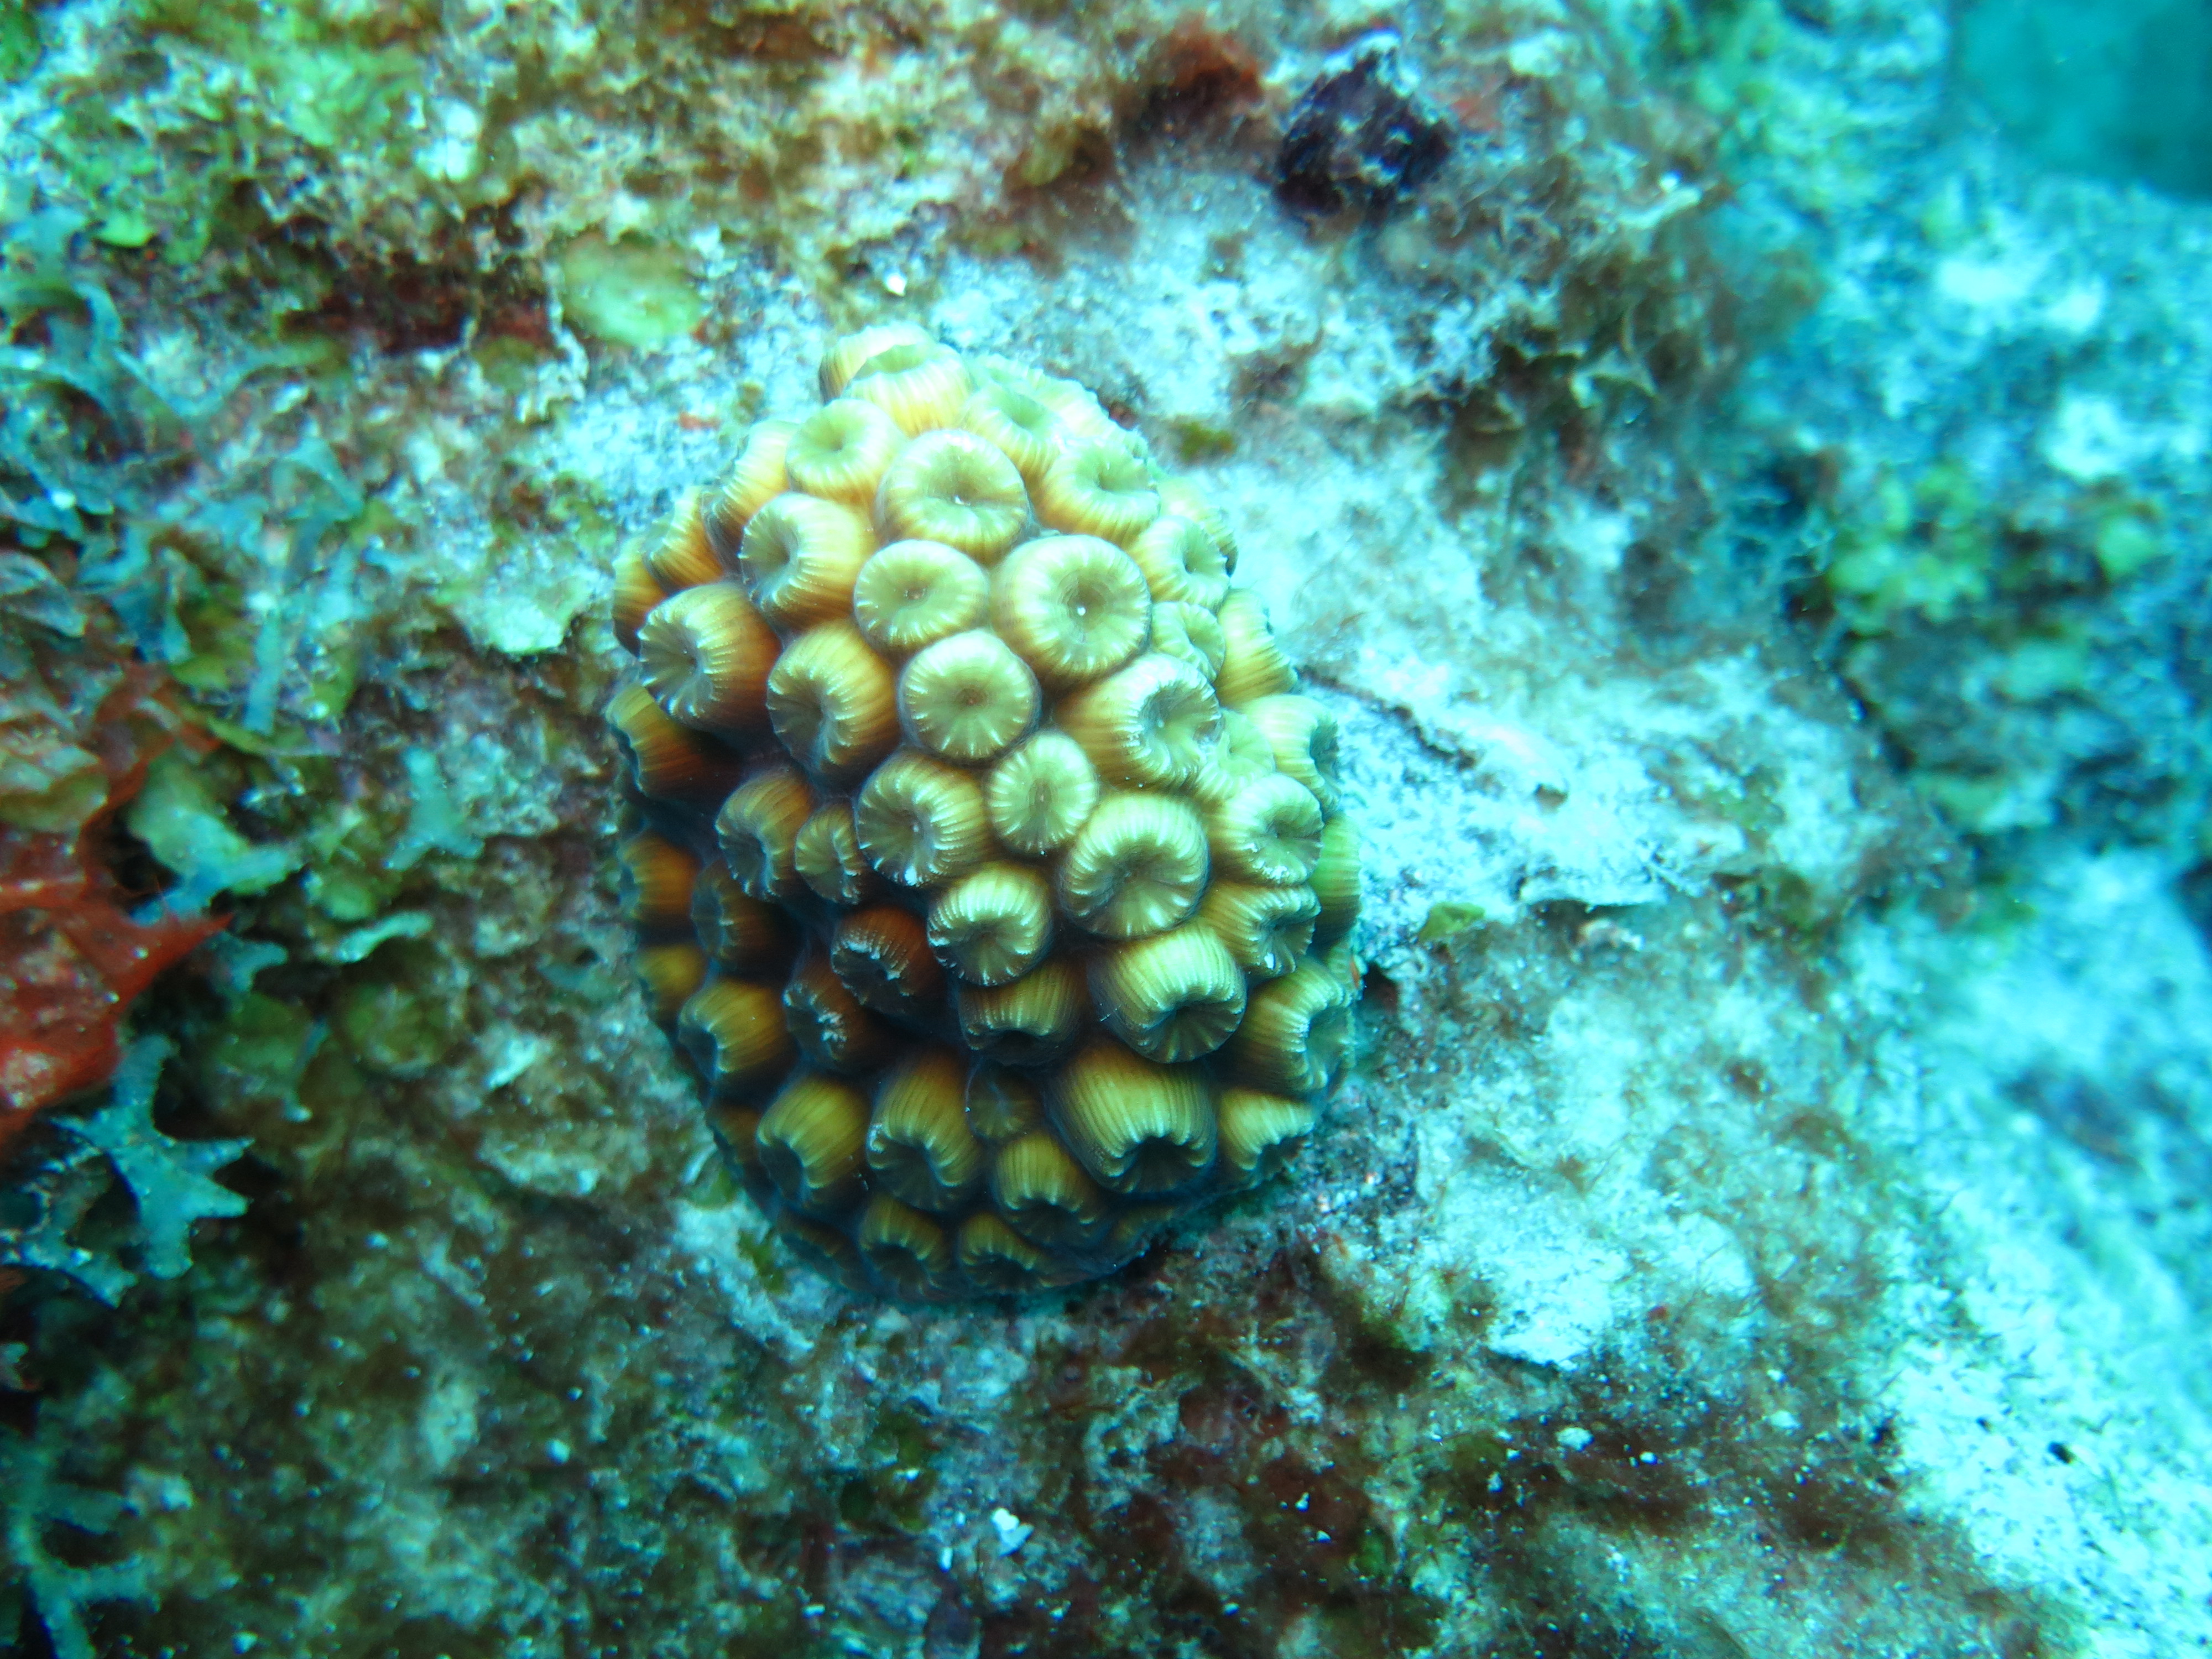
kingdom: Animalia
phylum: Cnidaria
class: Anthozoa
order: Scleractinia
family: Montastraeidae
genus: Montastraea
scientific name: Montastraea cavernosa
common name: Great star coral
